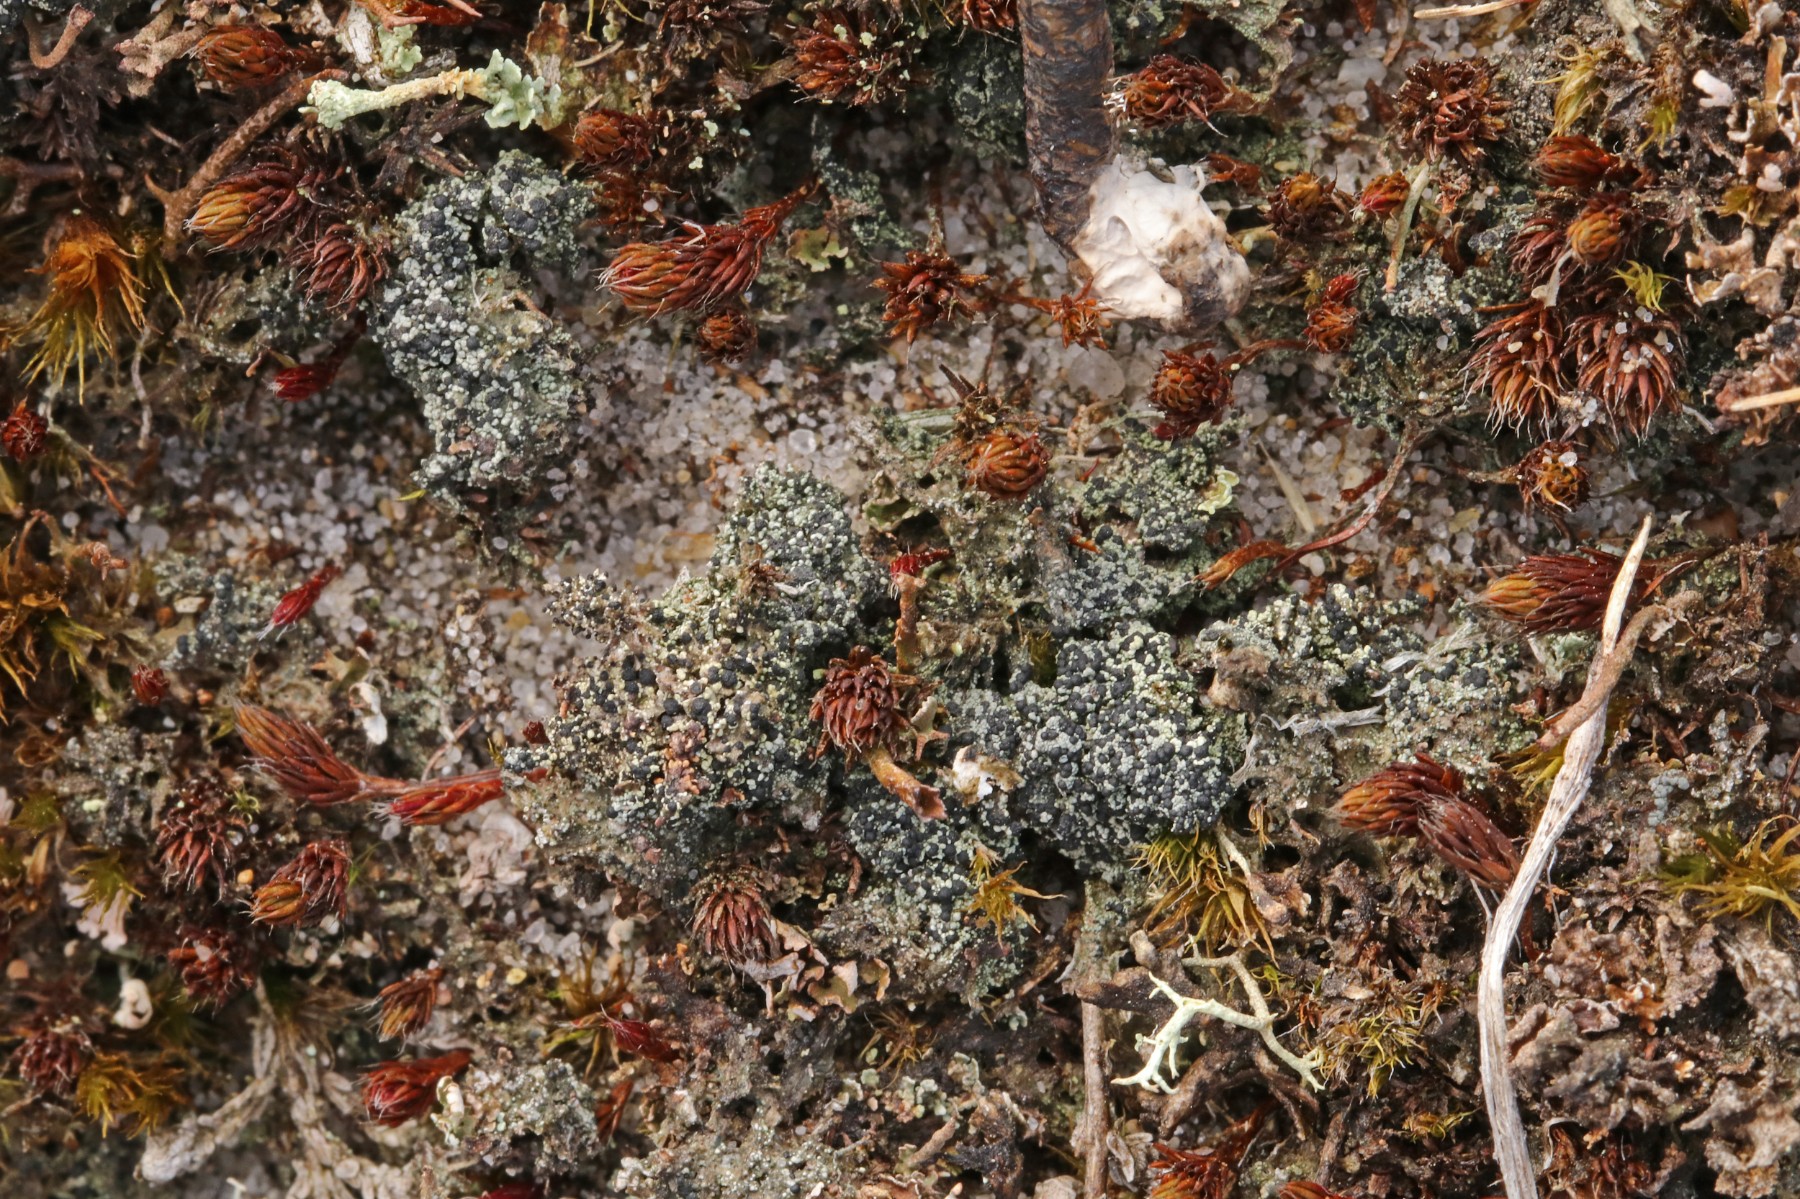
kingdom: Fungi
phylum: Ascomycota
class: Lecanoromycetes
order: Lecanorales
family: Byssolomataceae
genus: Micarea
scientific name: Micarea lignaria
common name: tørve-knaplav
